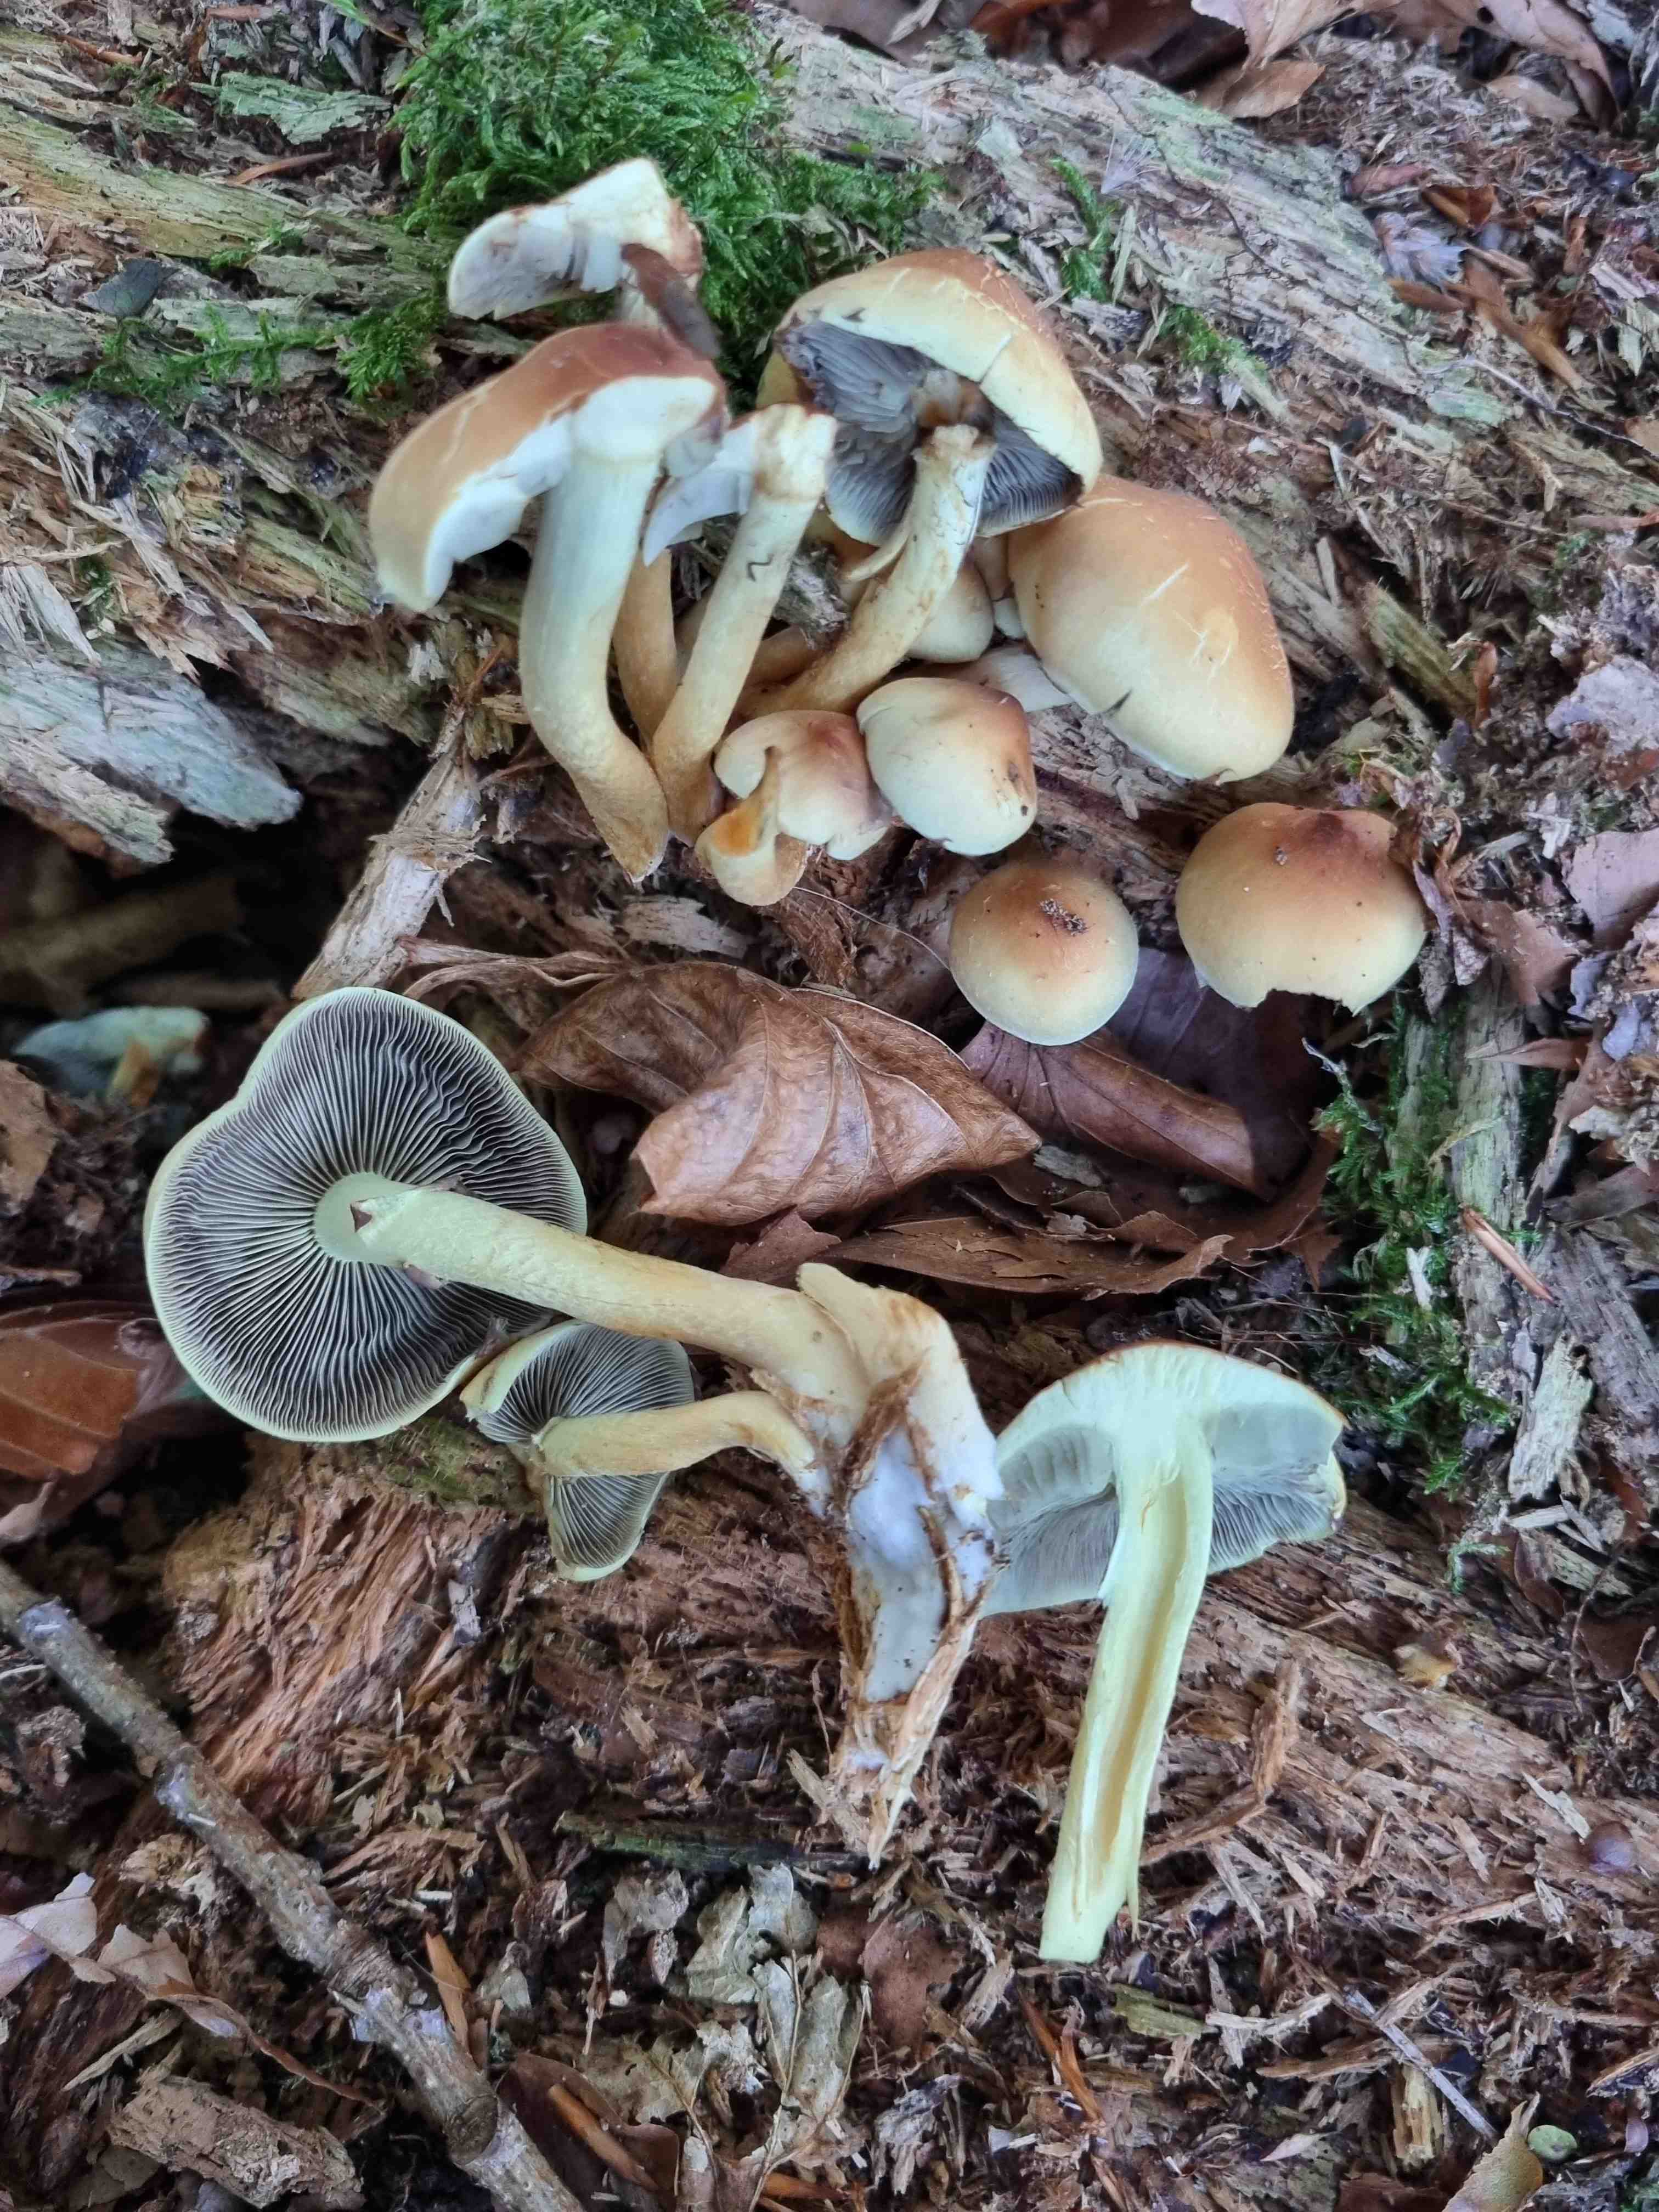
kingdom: Fungi
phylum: Basidiomycota
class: Agaricomycetes
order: Agaricales
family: Strophariaceae
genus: Hypholoma
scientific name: Hypholoma fasciculare
